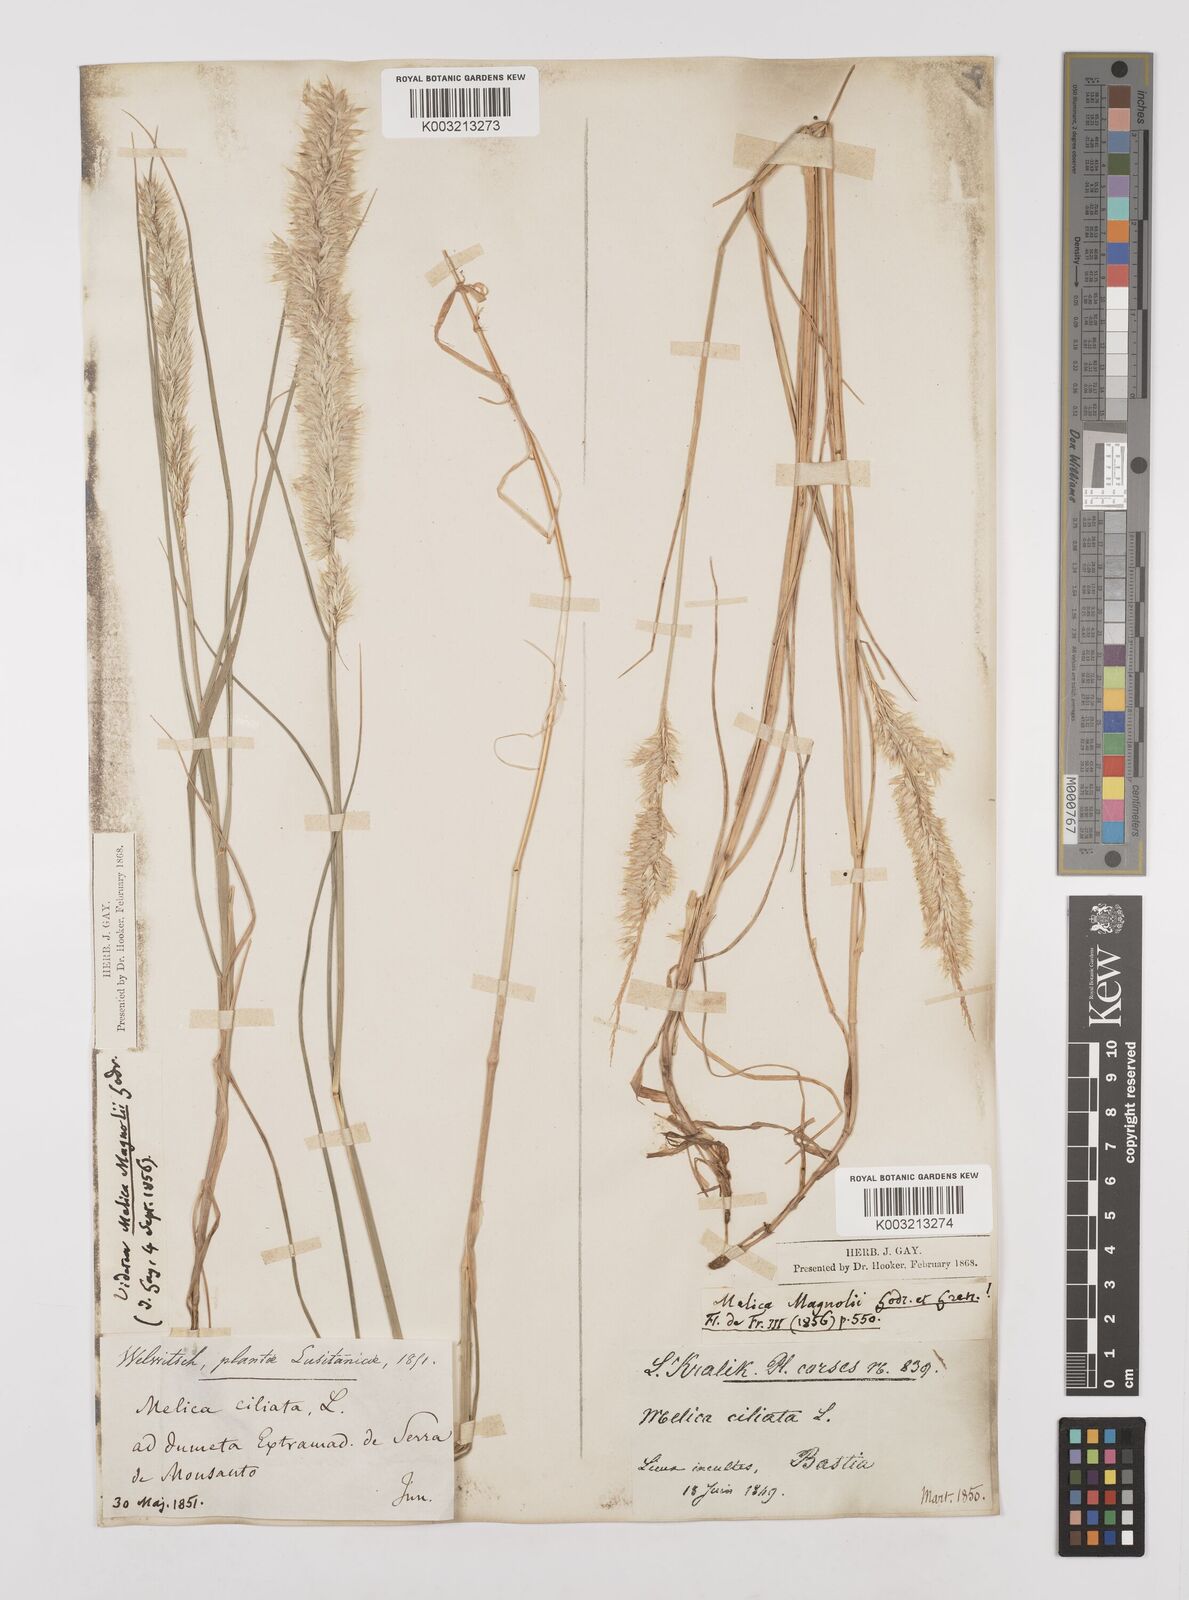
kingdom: Plantae
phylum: Tracheophyta
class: Liliopsida
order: Poales
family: Poaceae
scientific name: Poaceae
